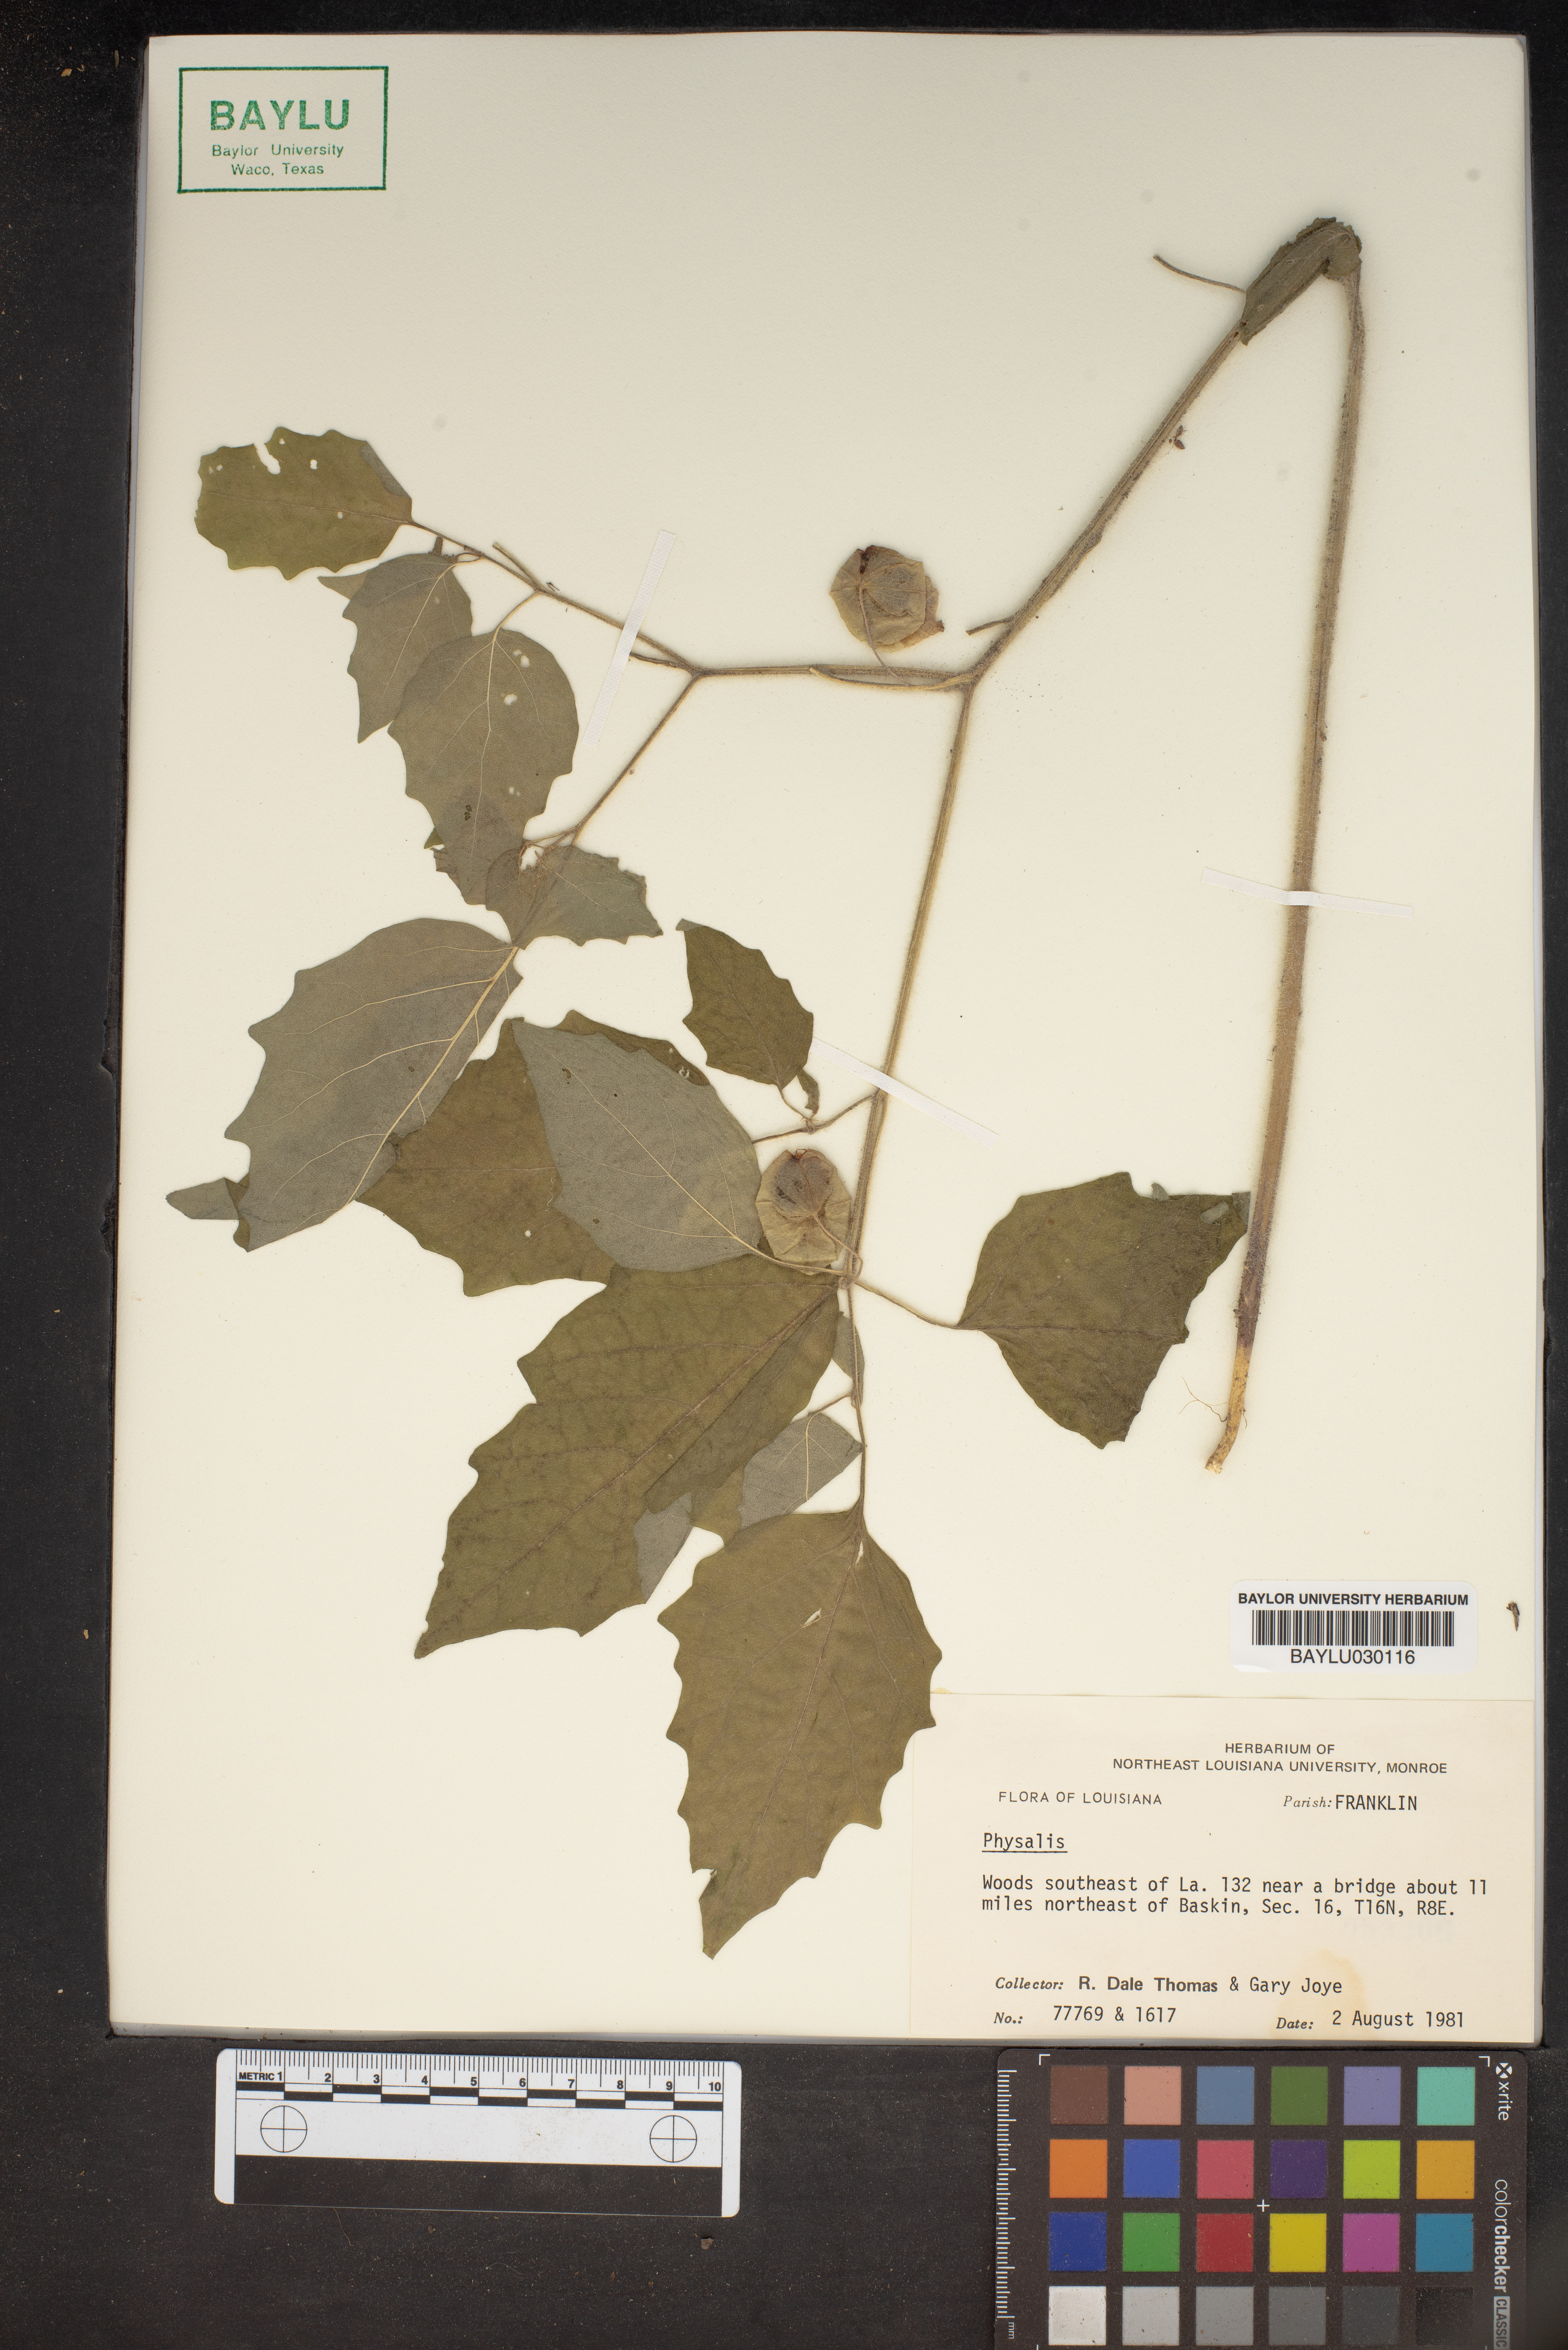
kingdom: Plantae
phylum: Tracheophyta
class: Magnoliopsida
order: Solanales
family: Solanaceae
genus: Physalis
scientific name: Physalis
